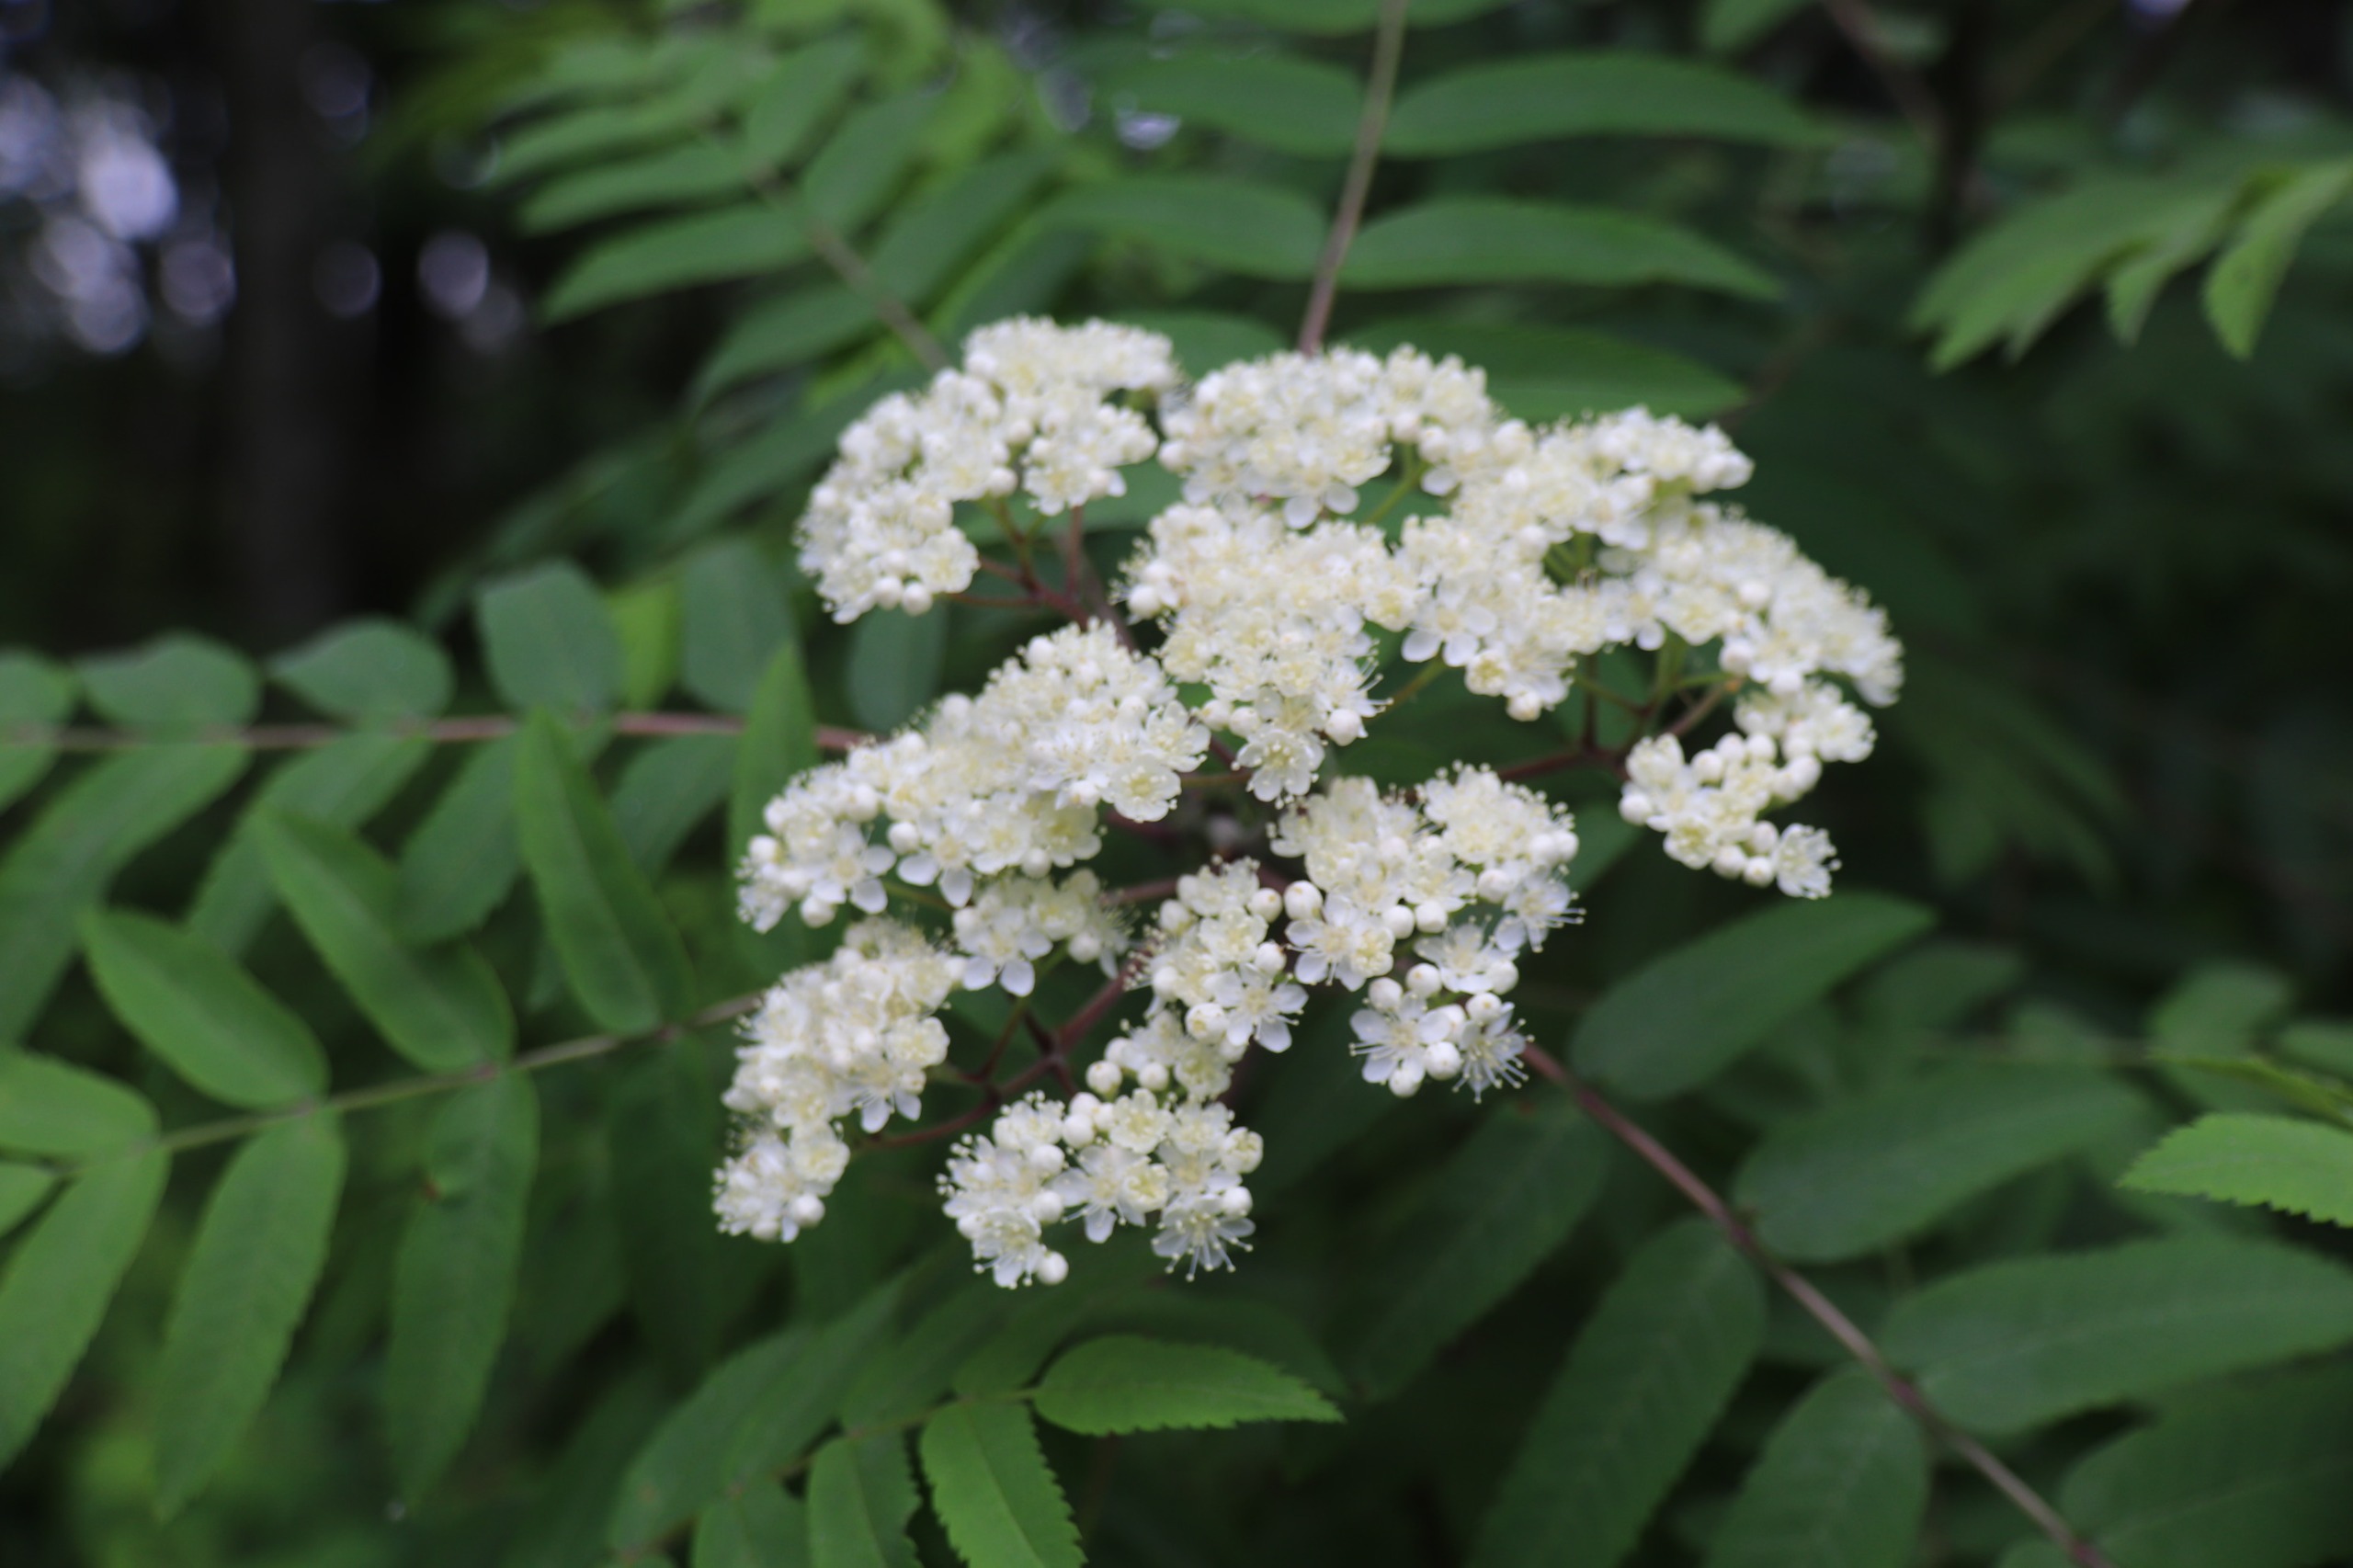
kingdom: Plantae
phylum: Tracheophyta
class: Magnoliopsida
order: Rosales
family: Rosaceae
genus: Sorbus
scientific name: Sorbus aucuparia
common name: Almindelig røn
